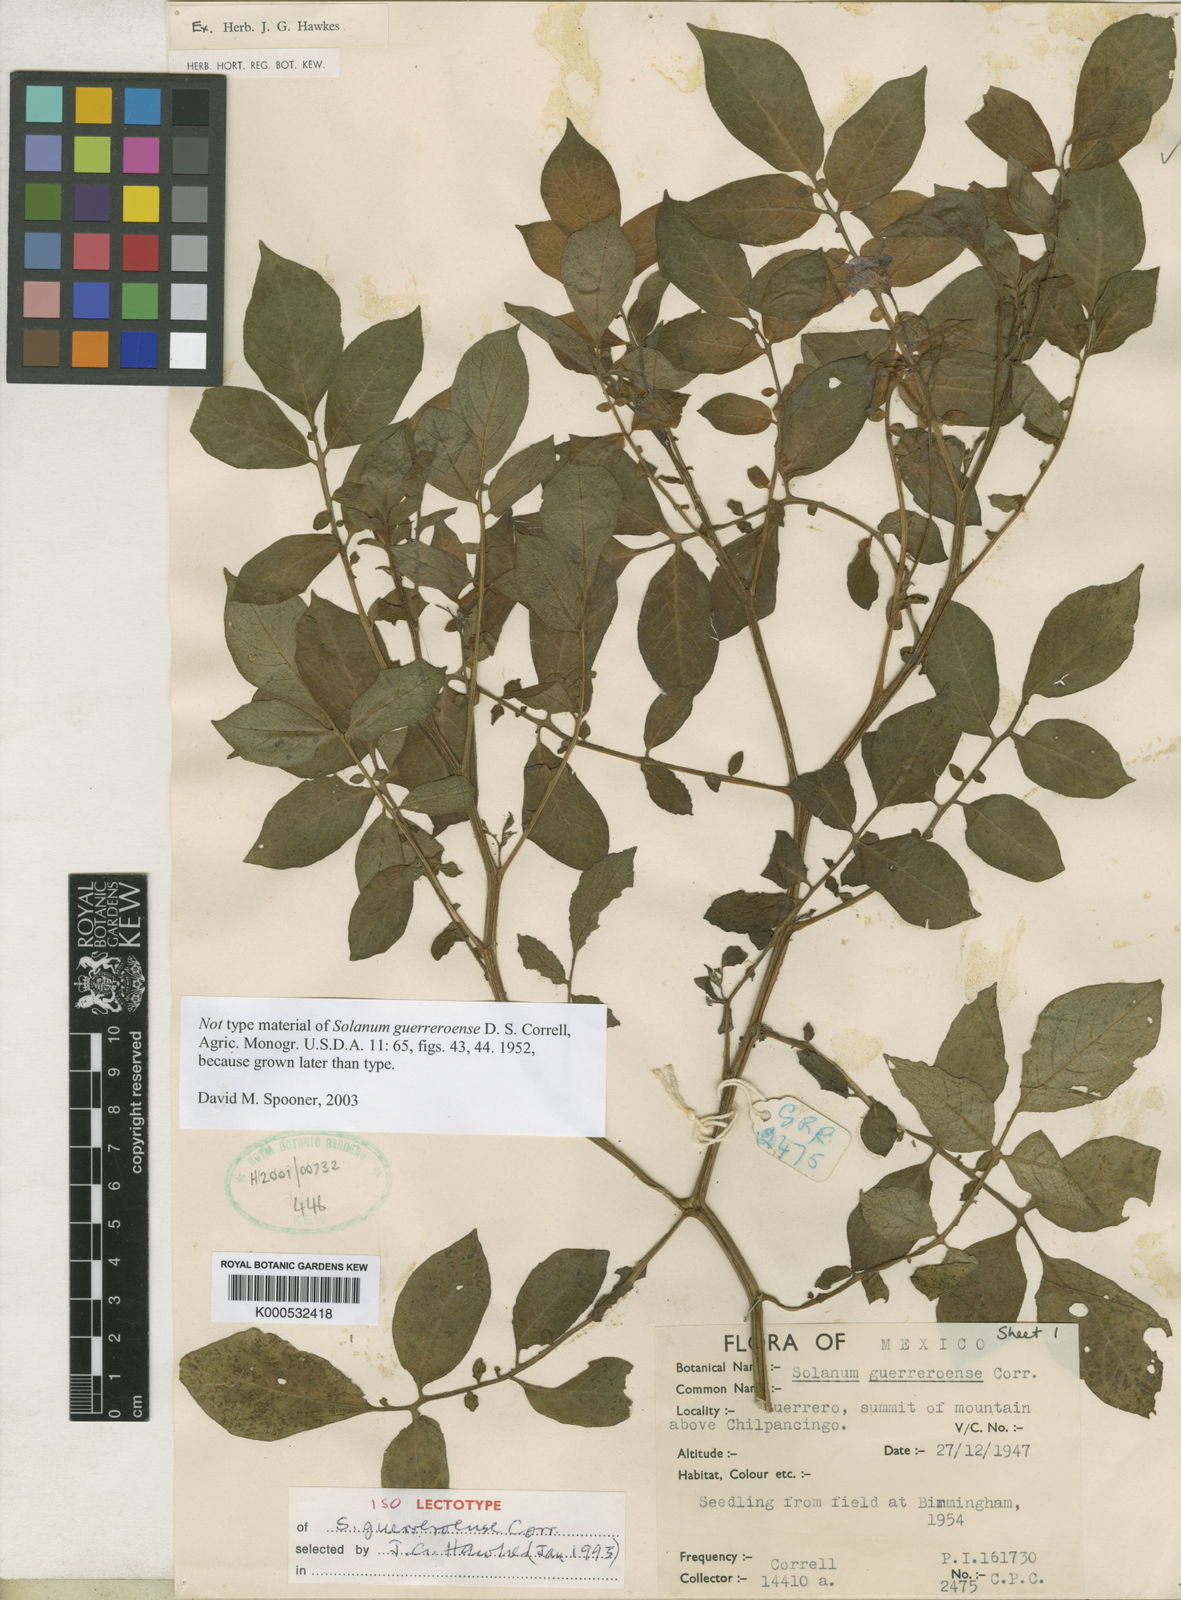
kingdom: Plantae
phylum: Tracheophyta
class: Magnoliopsida
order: Solanales
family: Solanaceae
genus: Solanum
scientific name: Solanum guerreroense
